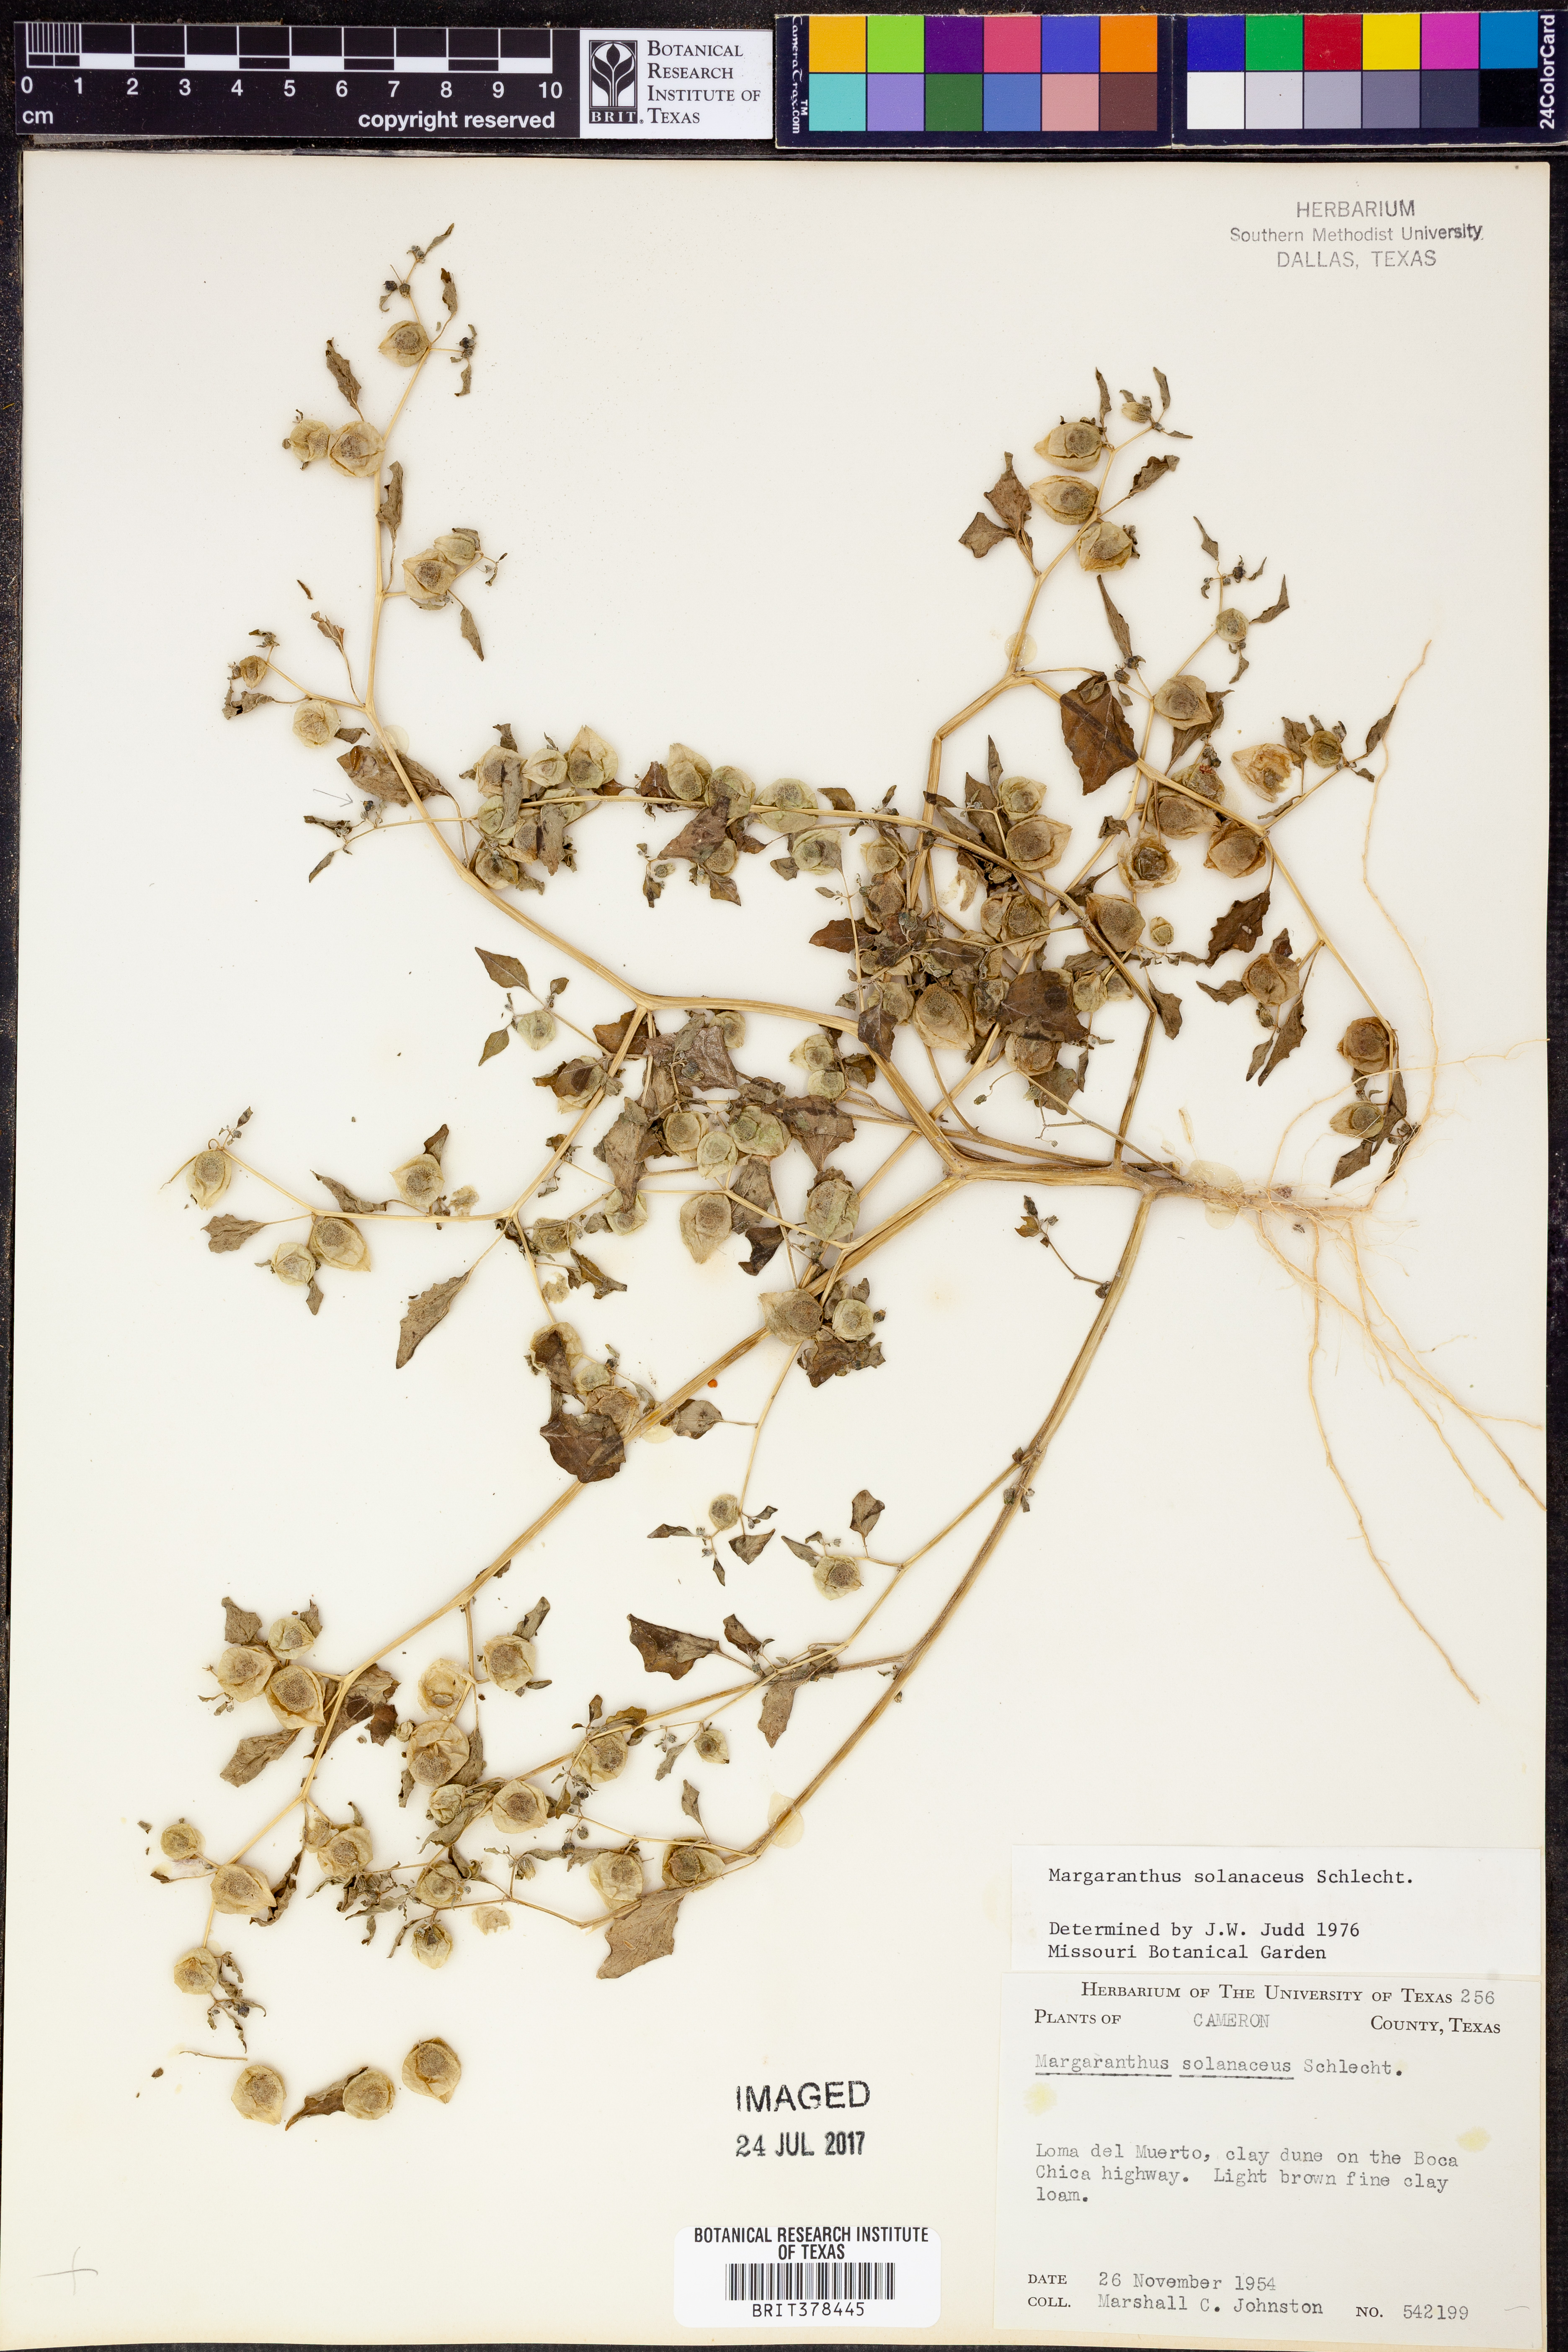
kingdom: Plantae
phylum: Tracheophyta
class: Magnoliopsida
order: Solanales
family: Solanaceae
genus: Physalis
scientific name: Physalis solanacea
